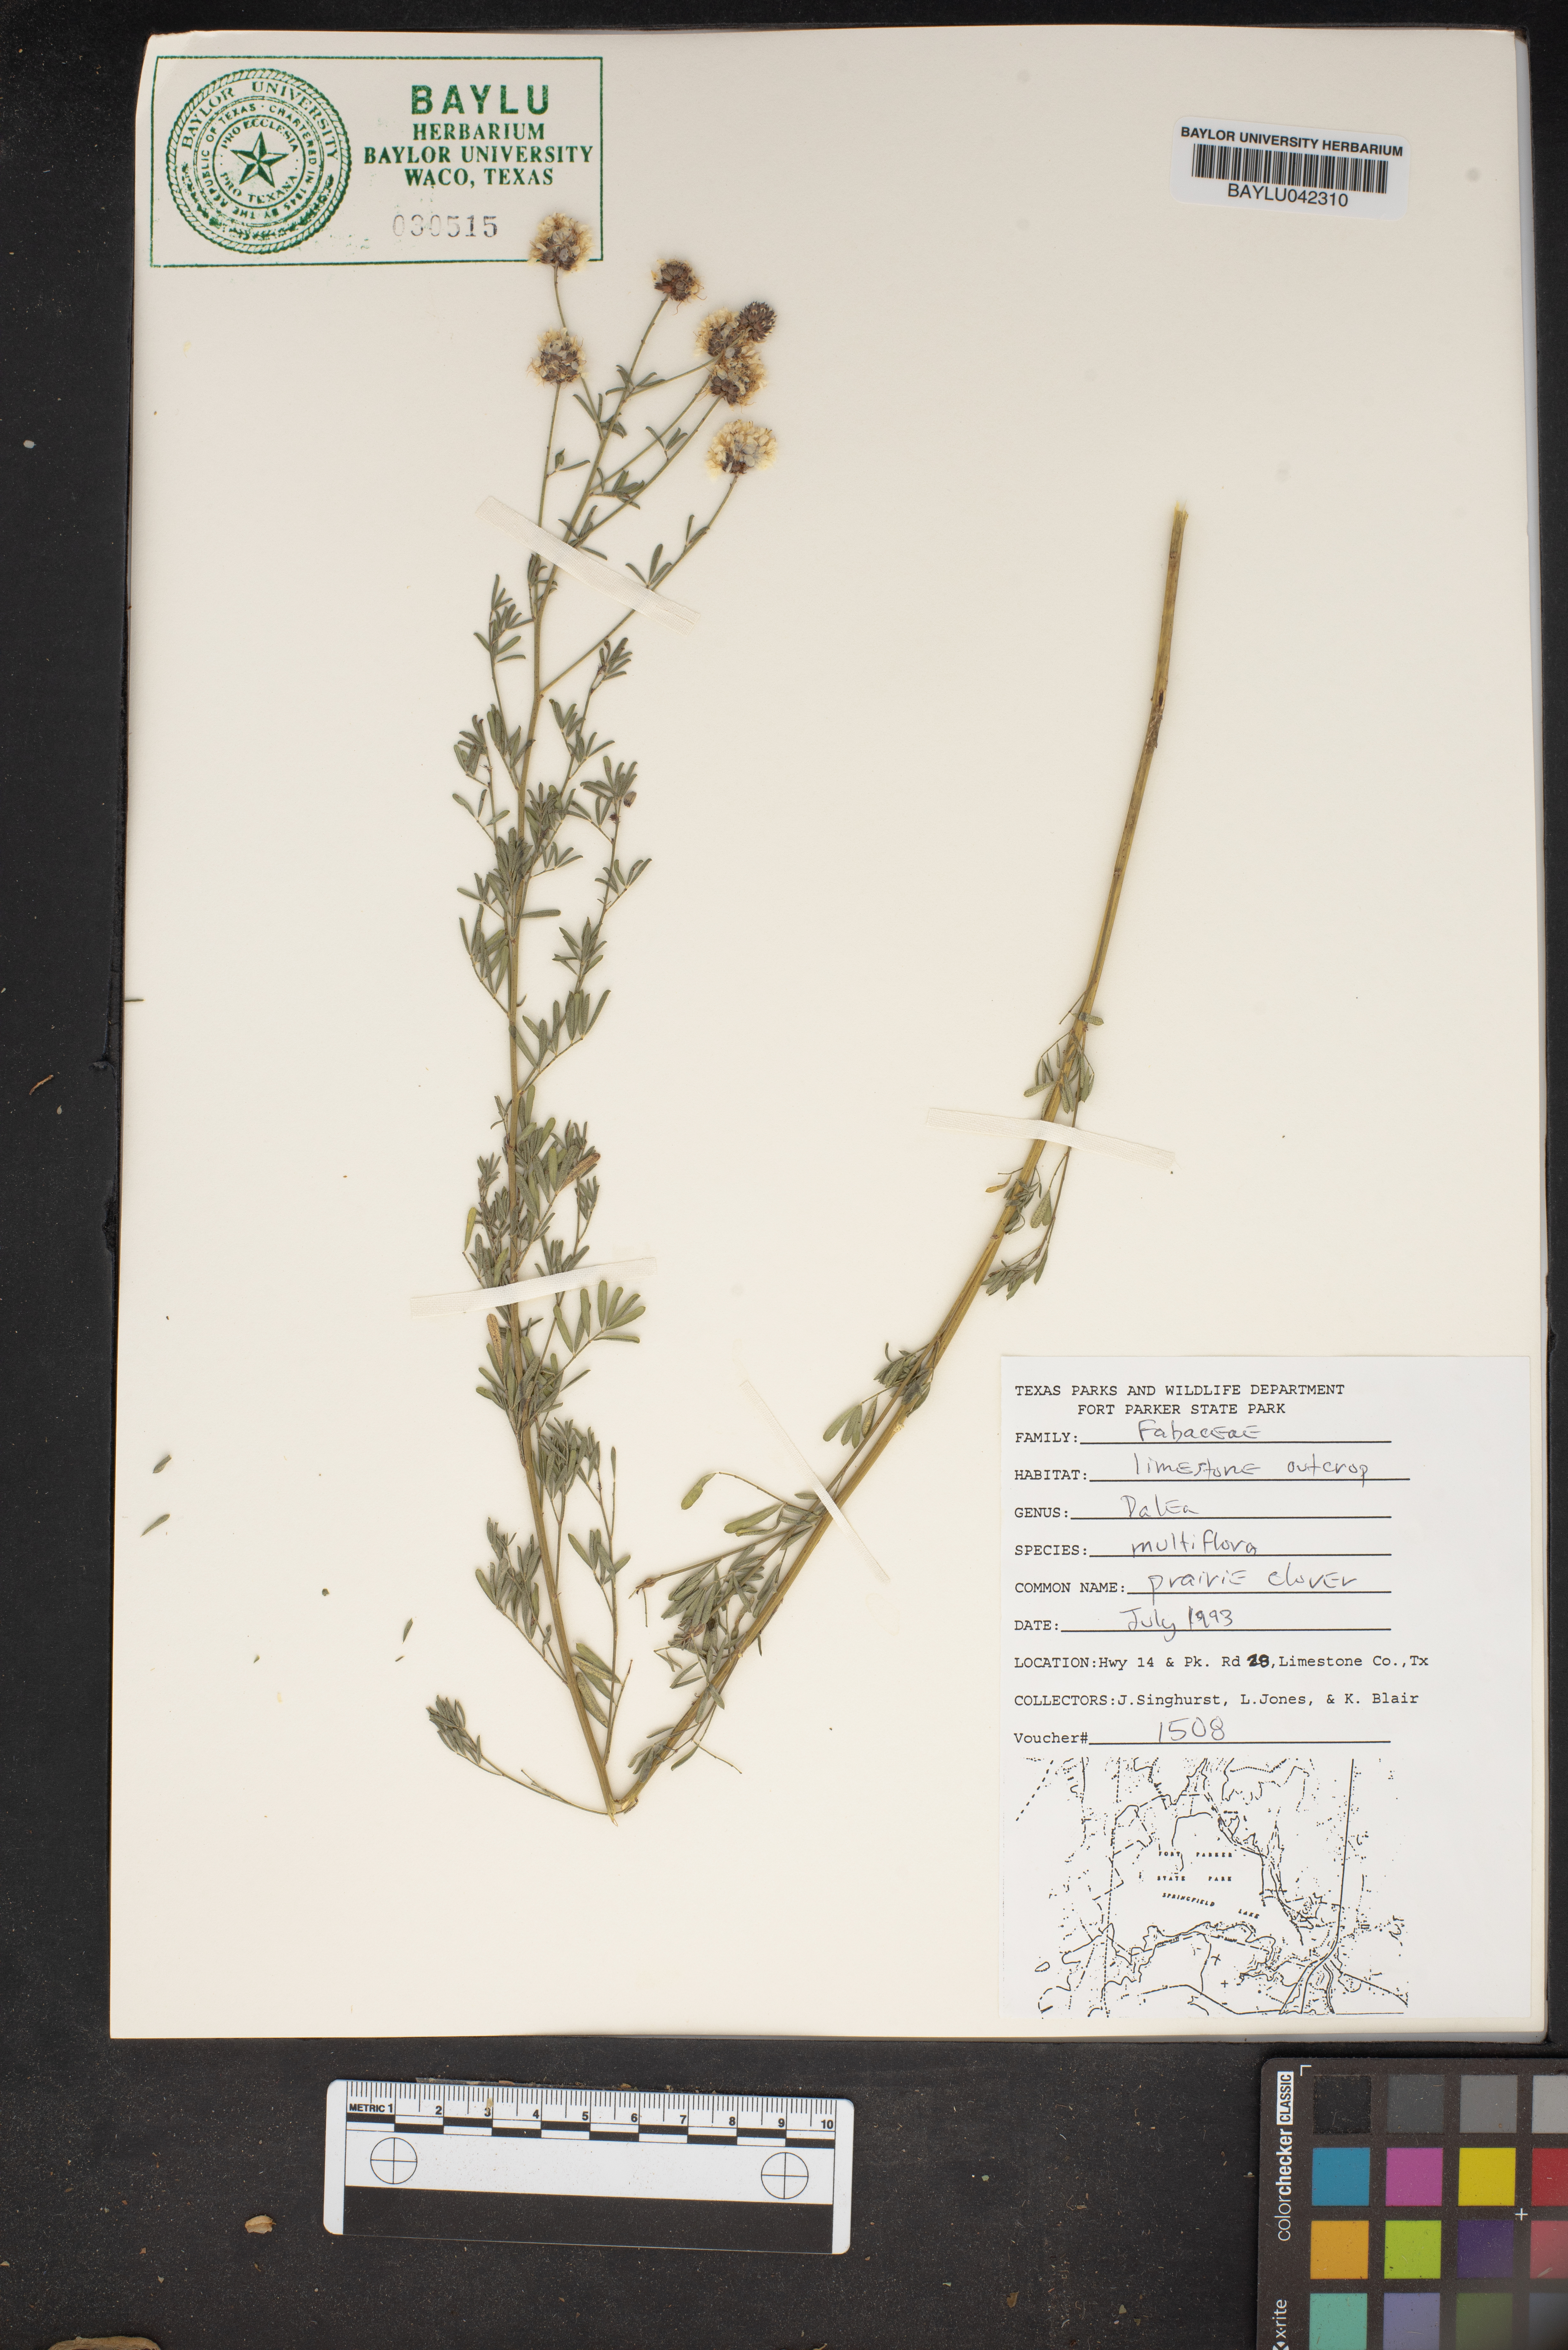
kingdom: Plantae
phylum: Tracheophyta
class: Magnoliopsida
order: Fabales
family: Fabaceae
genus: Dalea
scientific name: Dalea multiflora
